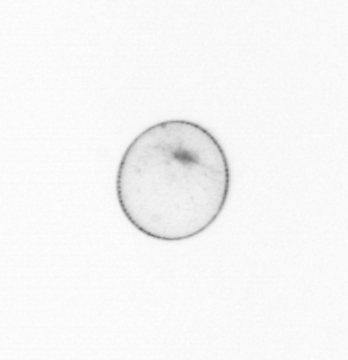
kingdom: Chromista
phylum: Myzozoa
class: Dinophyceae
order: Noctilucales
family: Noctilucaceae
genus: Noctiluca
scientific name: Noctiluca scintillans
